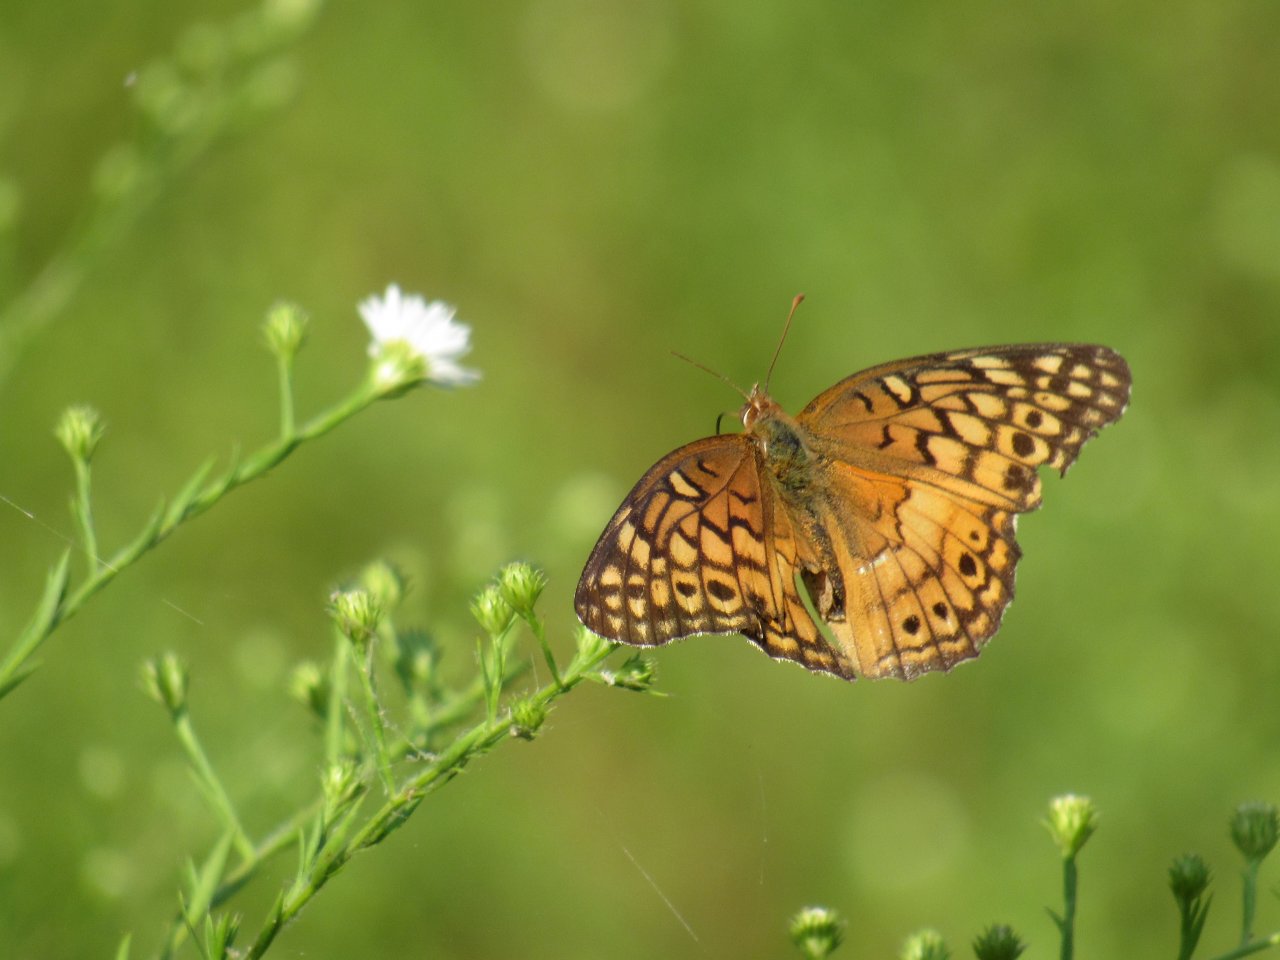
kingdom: Animalia
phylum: Arthropoda
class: Insecta
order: Lepidoptera
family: Nymphalidae
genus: Euptoieta
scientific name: Euptoieta claudia
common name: Variegated Fritillary
